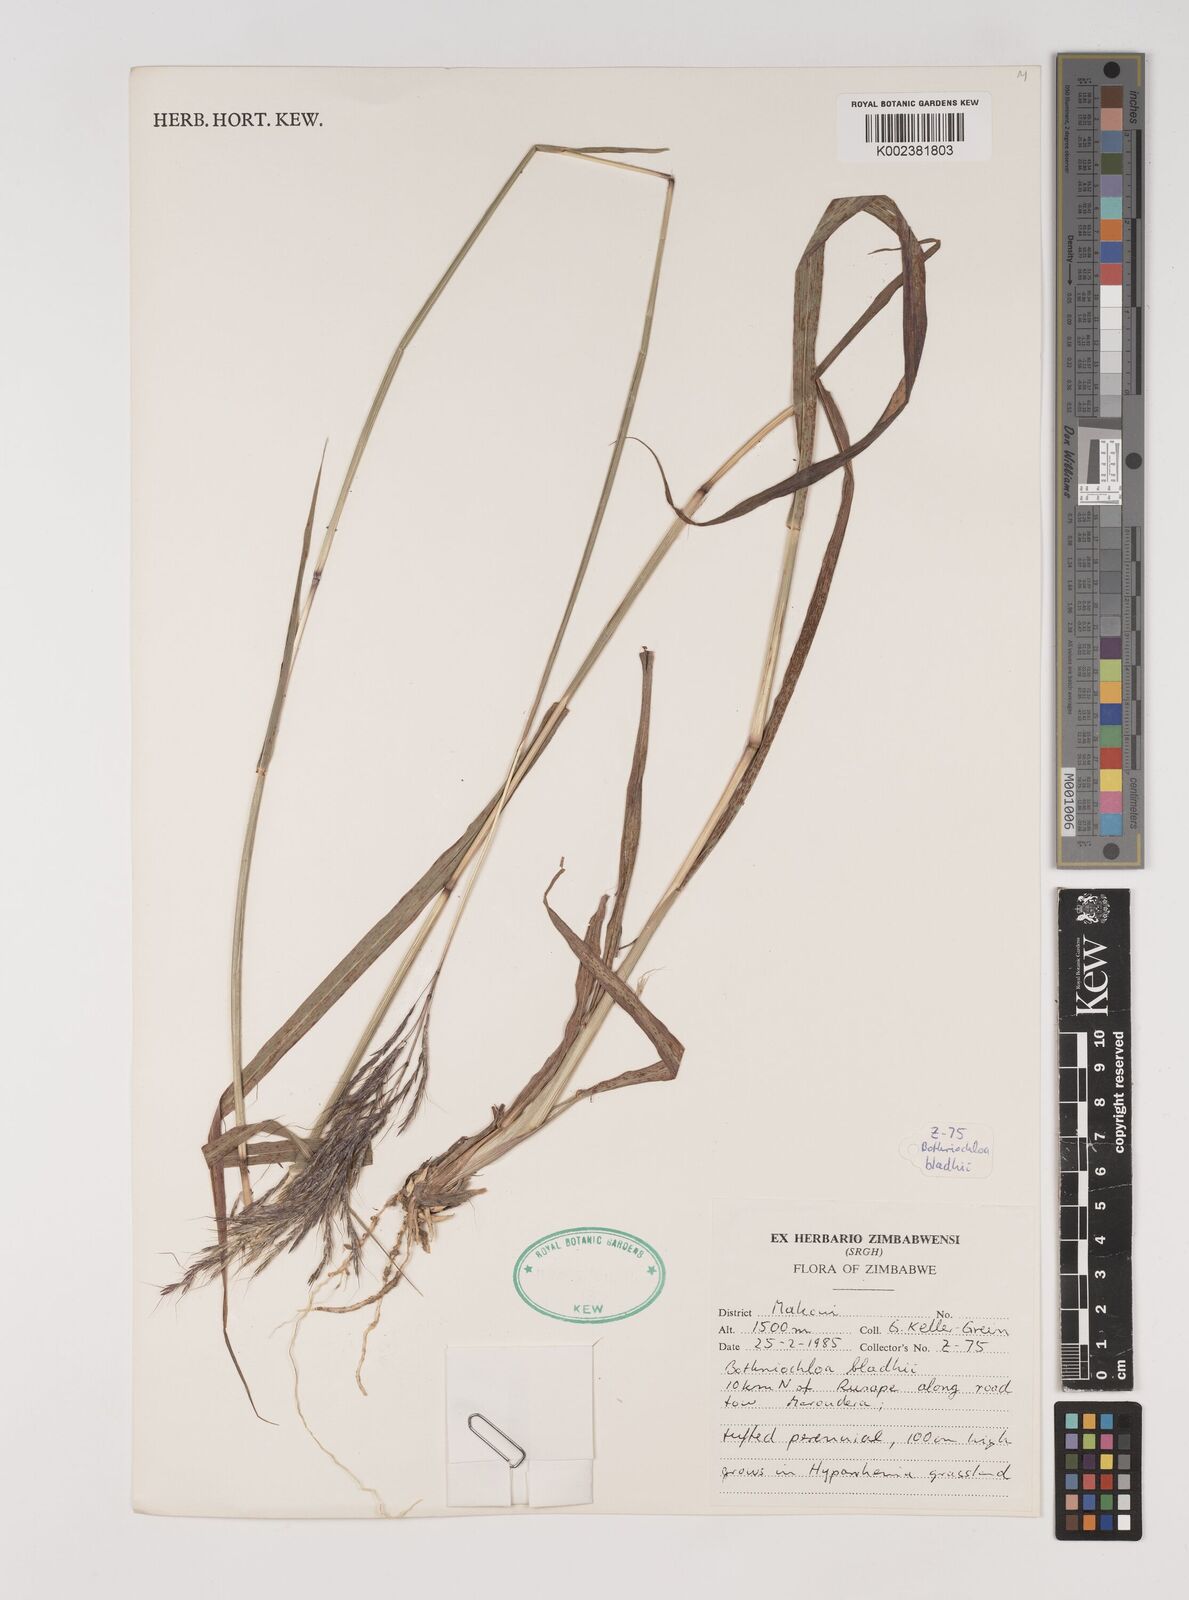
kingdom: Plantae
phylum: Tracheophyta
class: Liliopsida
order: Poales
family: Poaceae
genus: Bothriochloa
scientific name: Bothriochloa bladhii
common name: Caucasian bluestem
